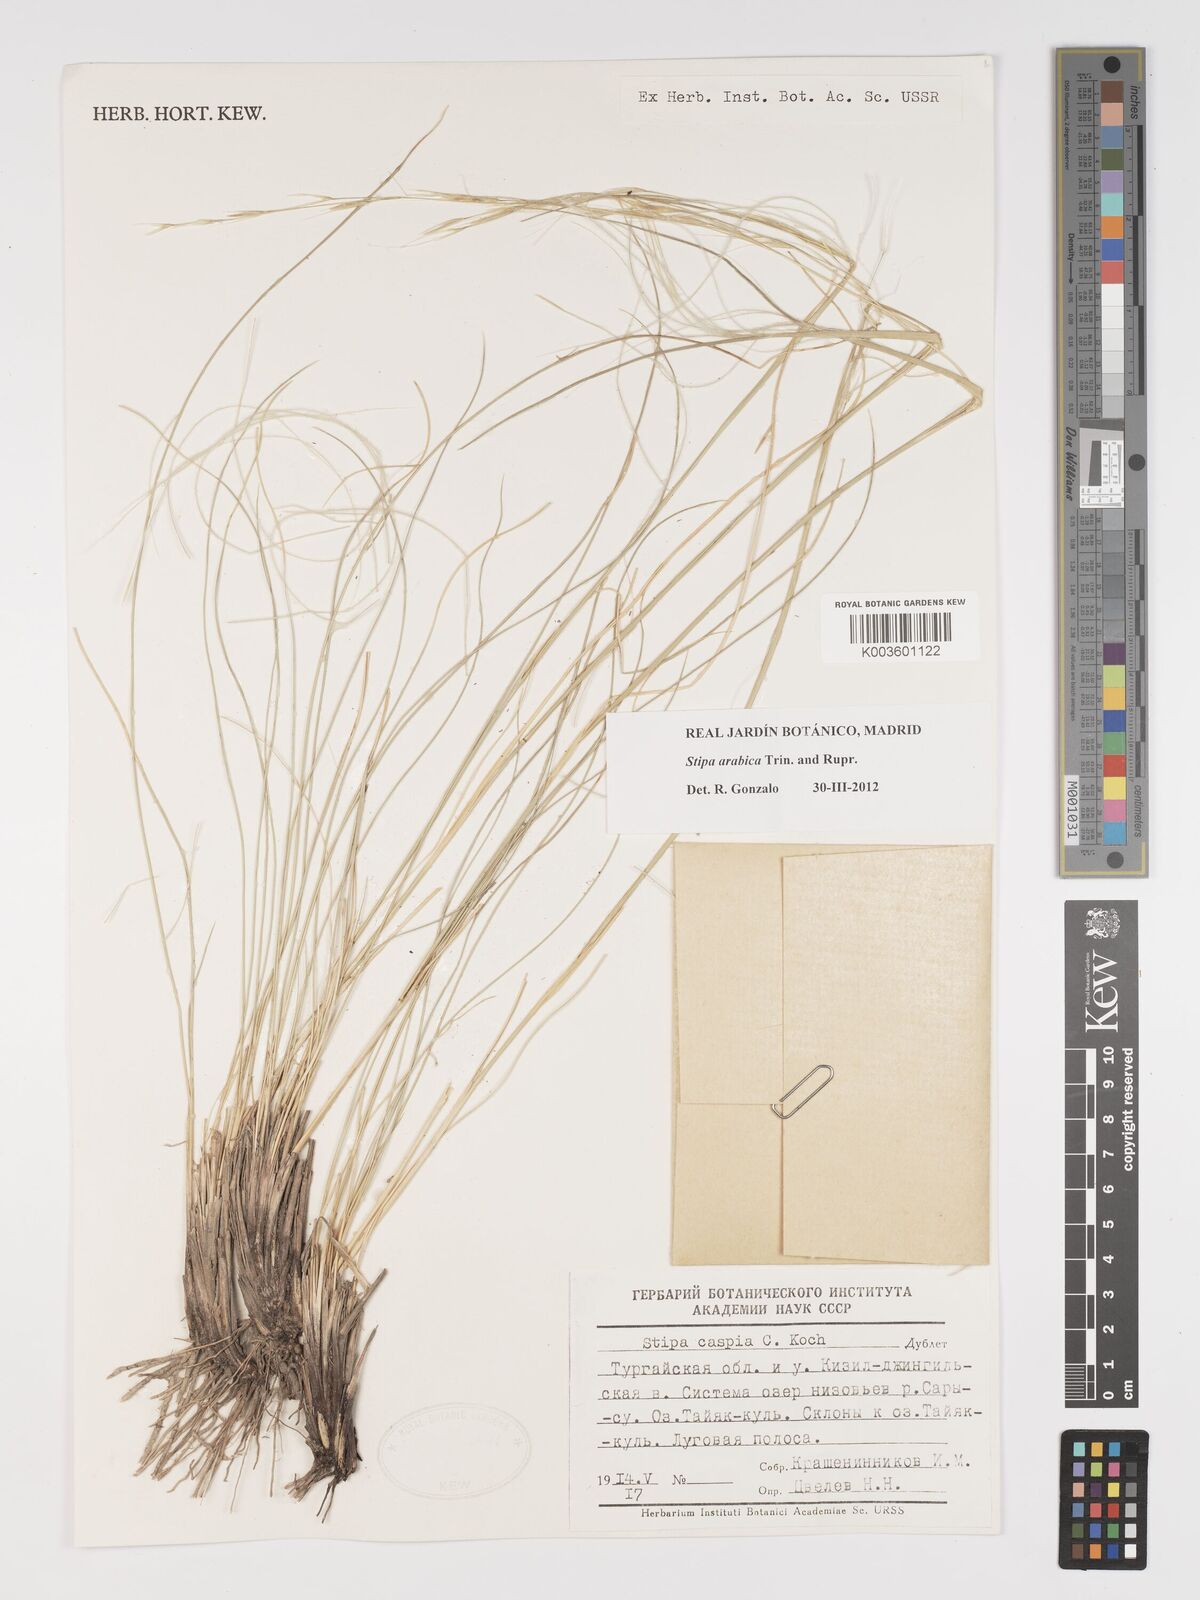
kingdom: Plantae
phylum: Tracheophyta
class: Liliopsida
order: Poales
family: Poaceae
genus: Stipa
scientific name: Stipa arabica
